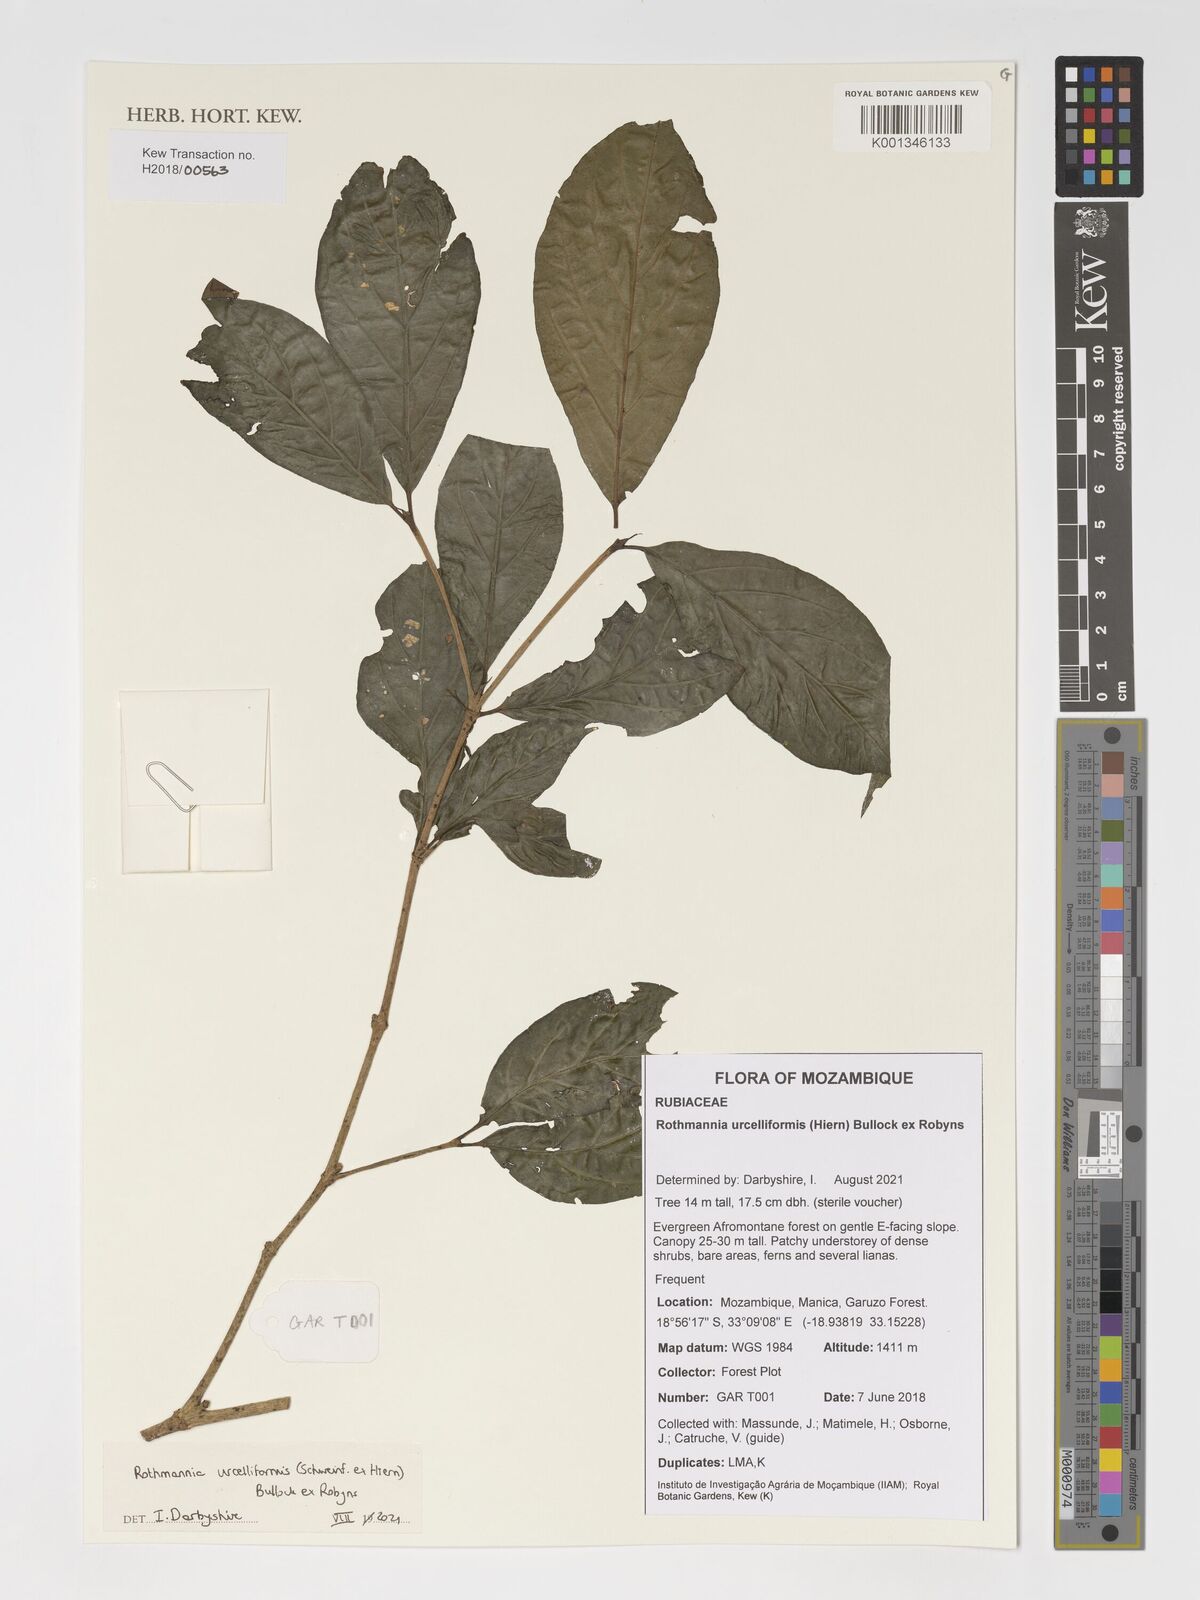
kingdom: Plantae
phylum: Tracheophyta
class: Magnoliopsida
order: Gentianales
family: Rubiaceae
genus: Rothmannia
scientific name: Rothmannia urcelliformis
